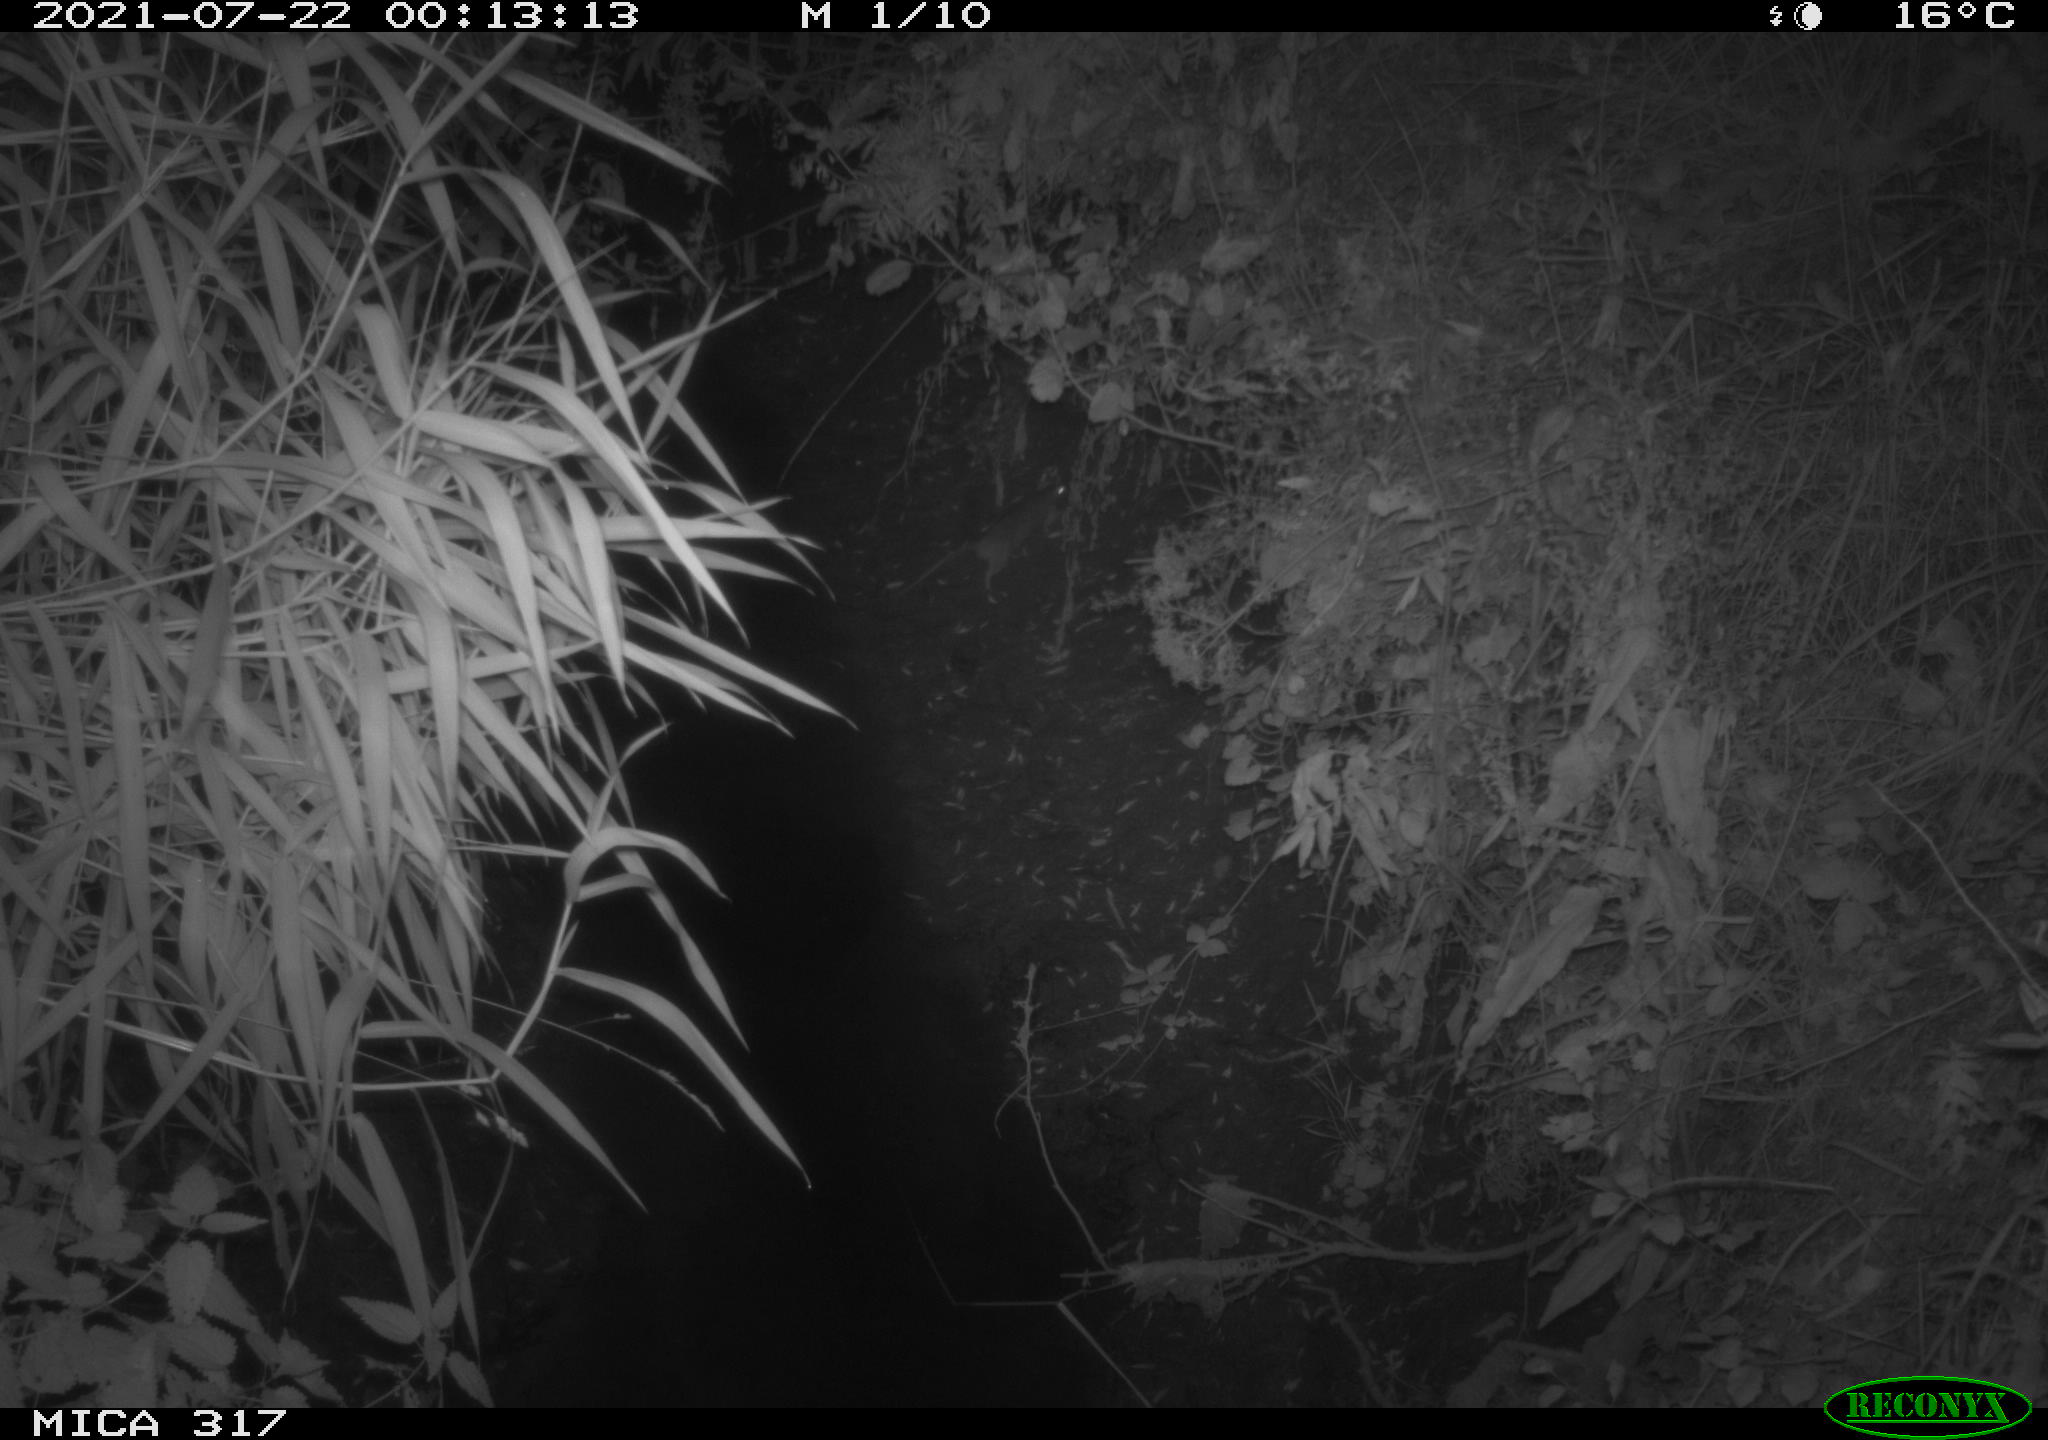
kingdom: Animalia
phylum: Chordata
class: Mammalia
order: Rodentia
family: Muridae
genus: Rattus
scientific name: Rattus norvegicus
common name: Brown rat
